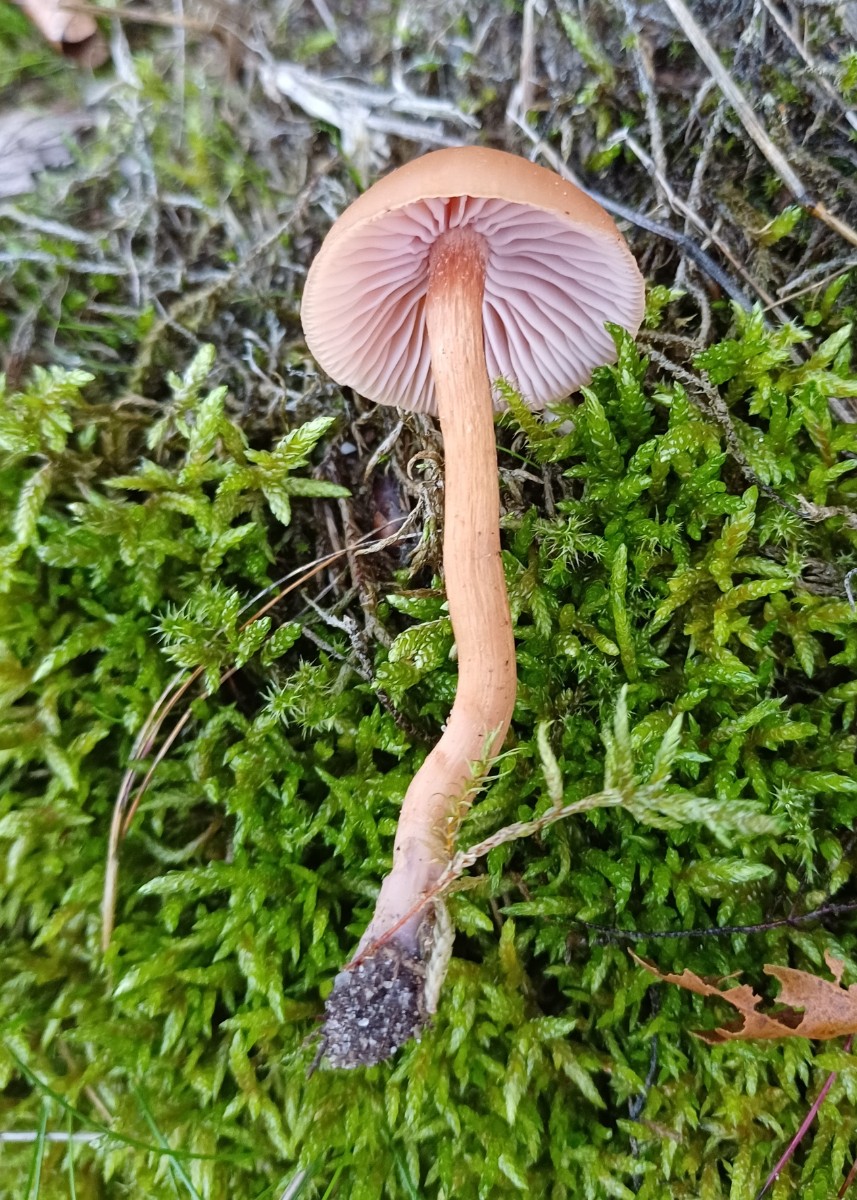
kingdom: Fungi
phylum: Basidiomycota
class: Agaricomycetes
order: Agaricales
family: Hydnangiaceae
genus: Laccaria
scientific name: Laccaria bicolor
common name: tvefarvet ametysthat
